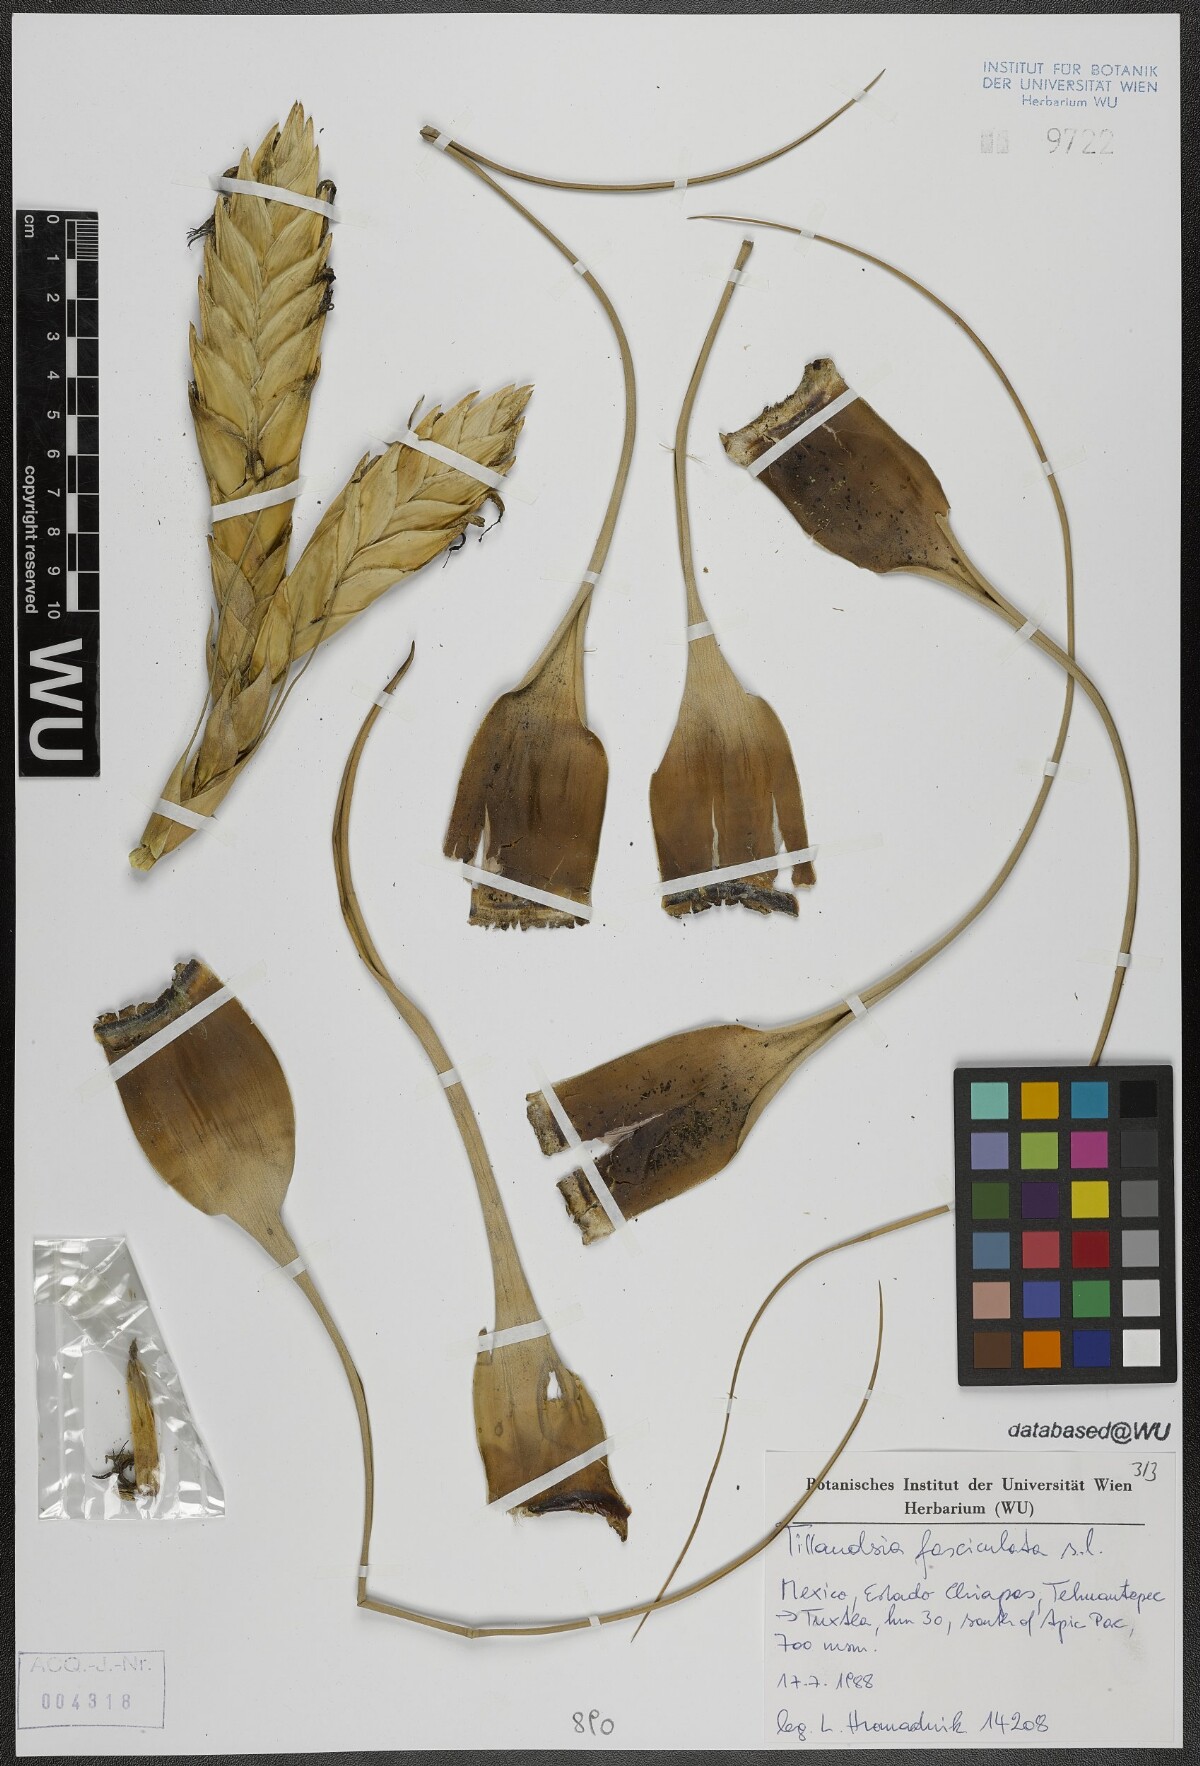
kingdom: Plantae
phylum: Tracheophyta
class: Liliopsida
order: Poales
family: Bromeliaceae
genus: Tillandsia
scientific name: Tillandsia fasciculata
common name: Giant airplant
